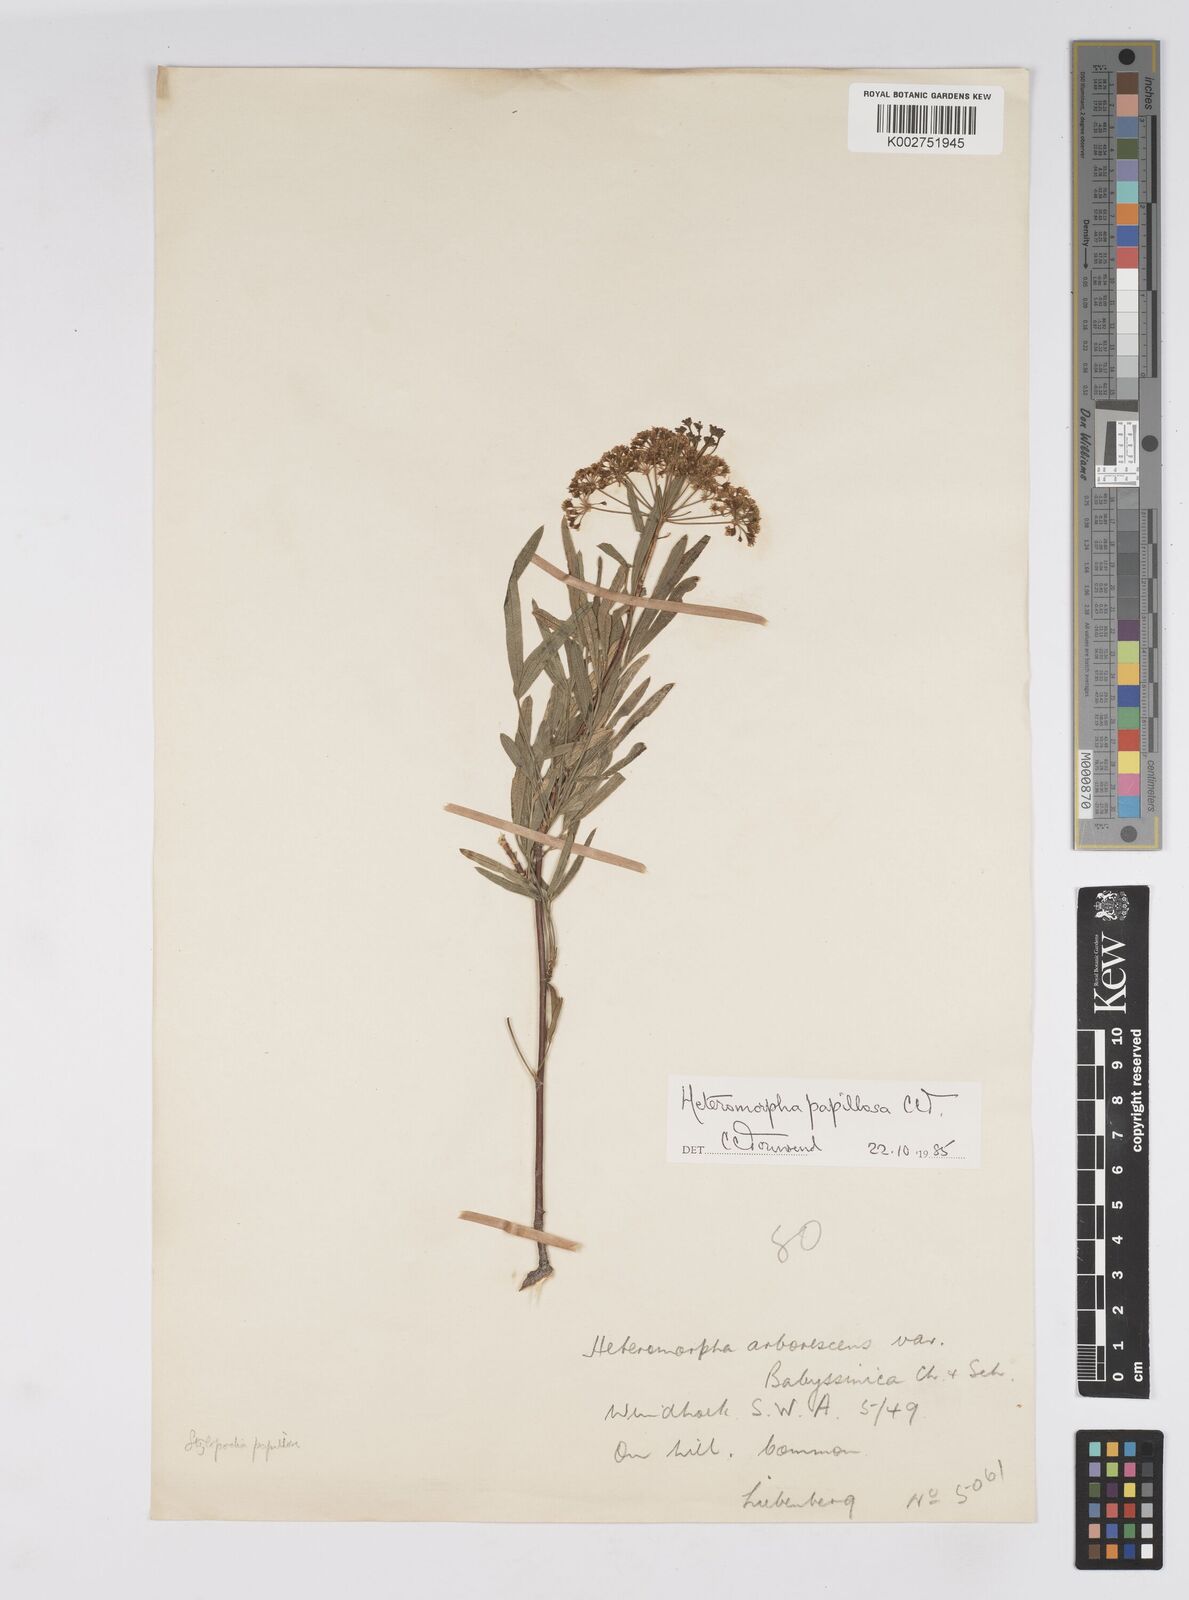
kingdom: Plantae
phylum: Tracheophyta
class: Magnoliopsida
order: Apiales
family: Apiaceae
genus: Heteromorpha
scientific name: Heteromorpha papillosa
